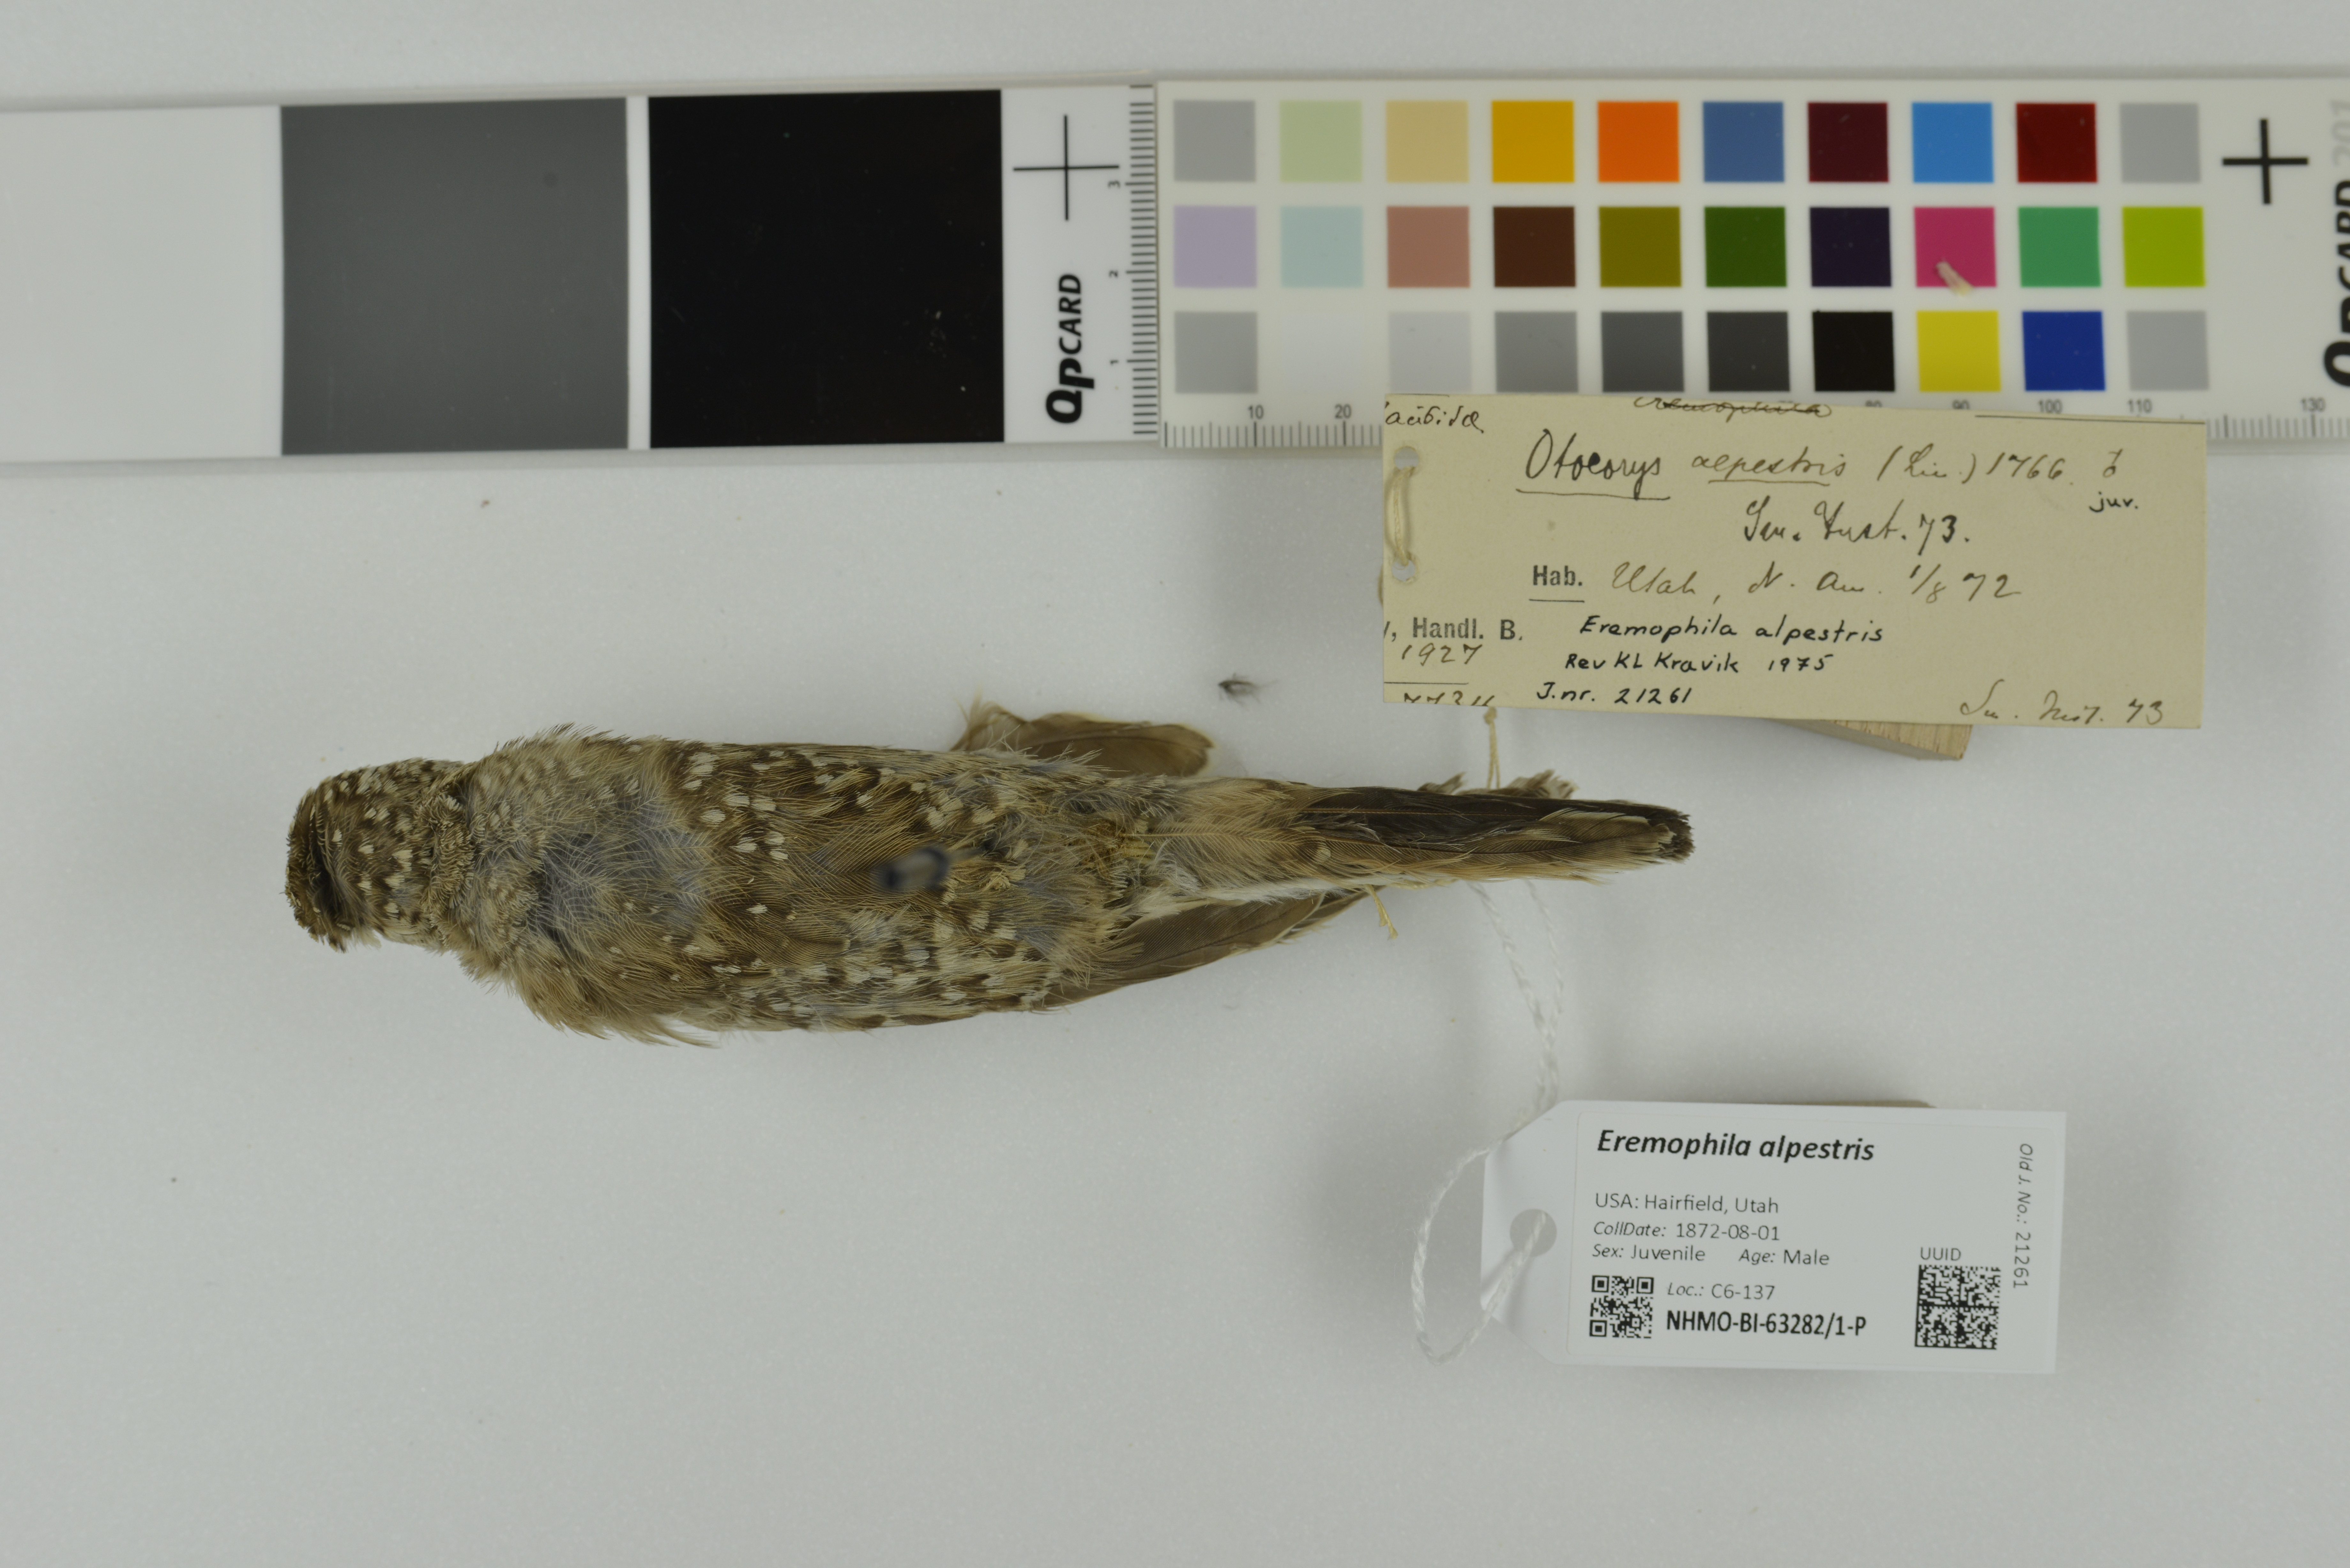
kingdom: Animalia
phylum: Chordata
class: Aves
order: Passeriformes
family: Alaudidae
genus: Eremophila
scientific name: Eremophila alpestris
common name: Horned lark
